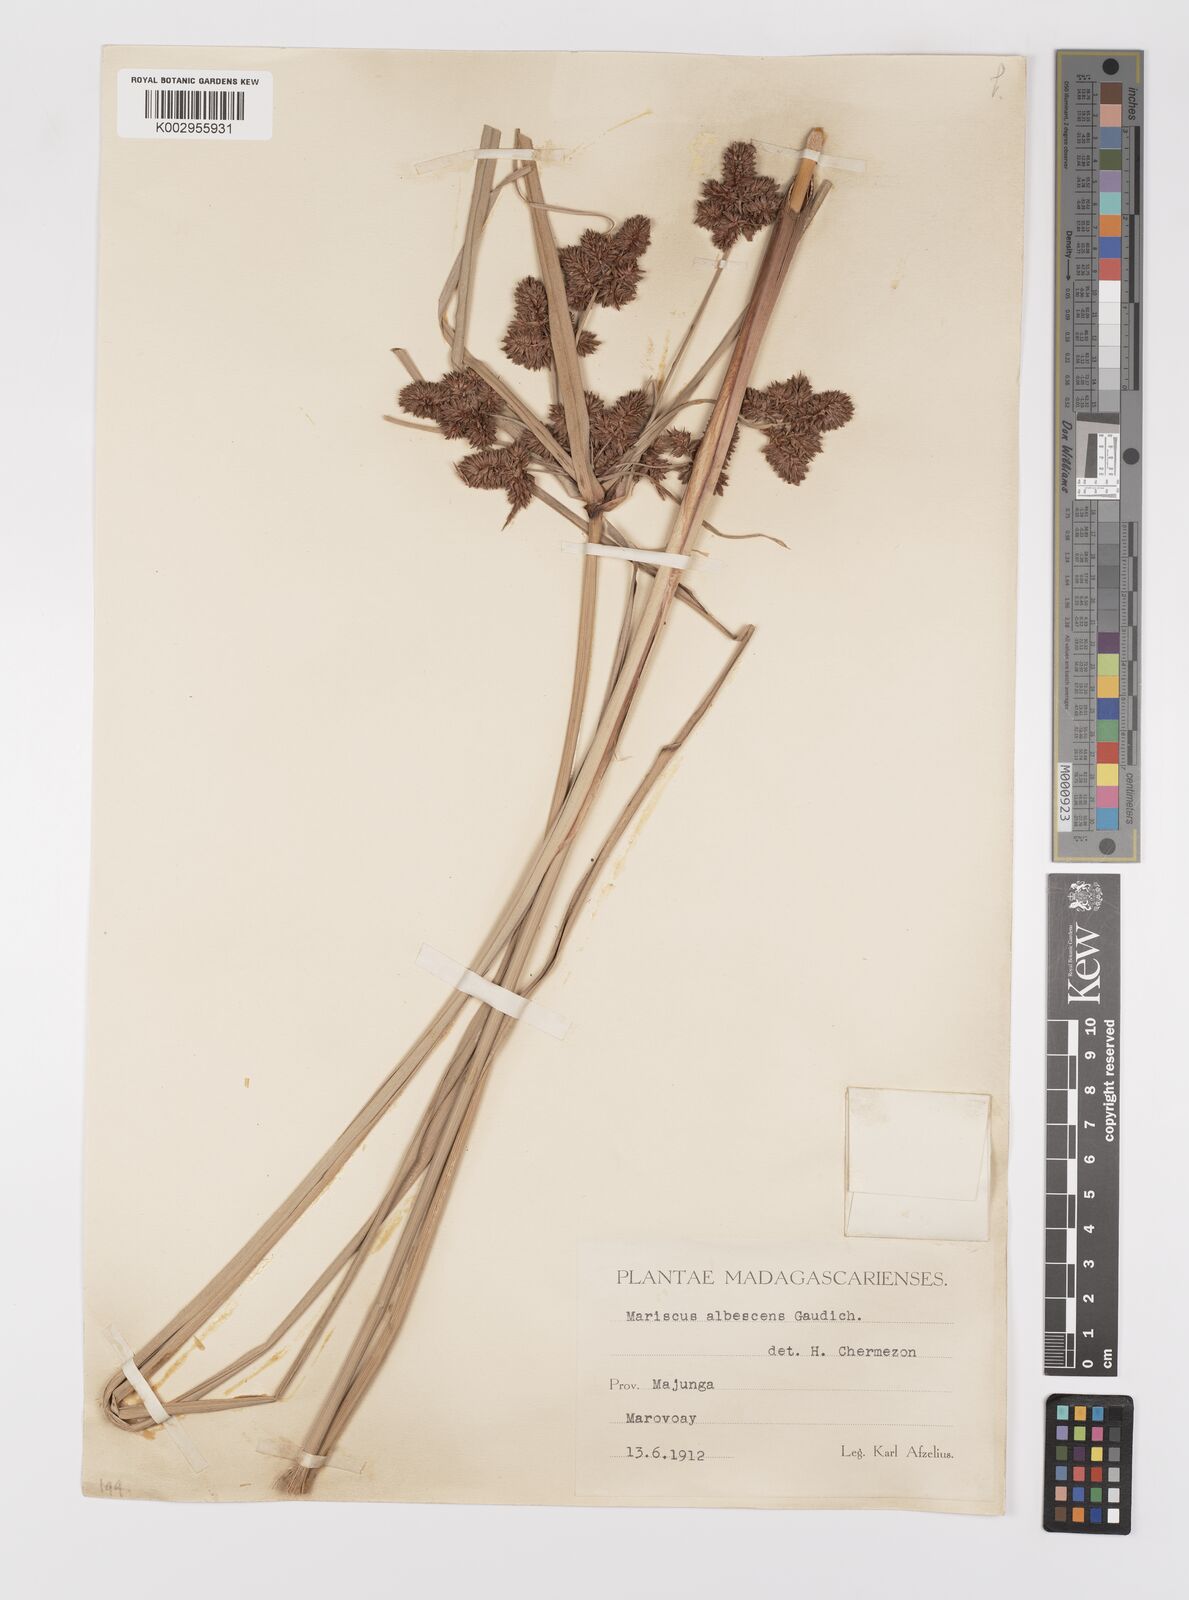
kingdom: Plantae
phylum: Tracheophyta
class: Liliopsida
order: Poales
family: Cyperaceae
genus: Cyperus
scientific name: Cyperus ligularis
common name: Swamp flat sedge
